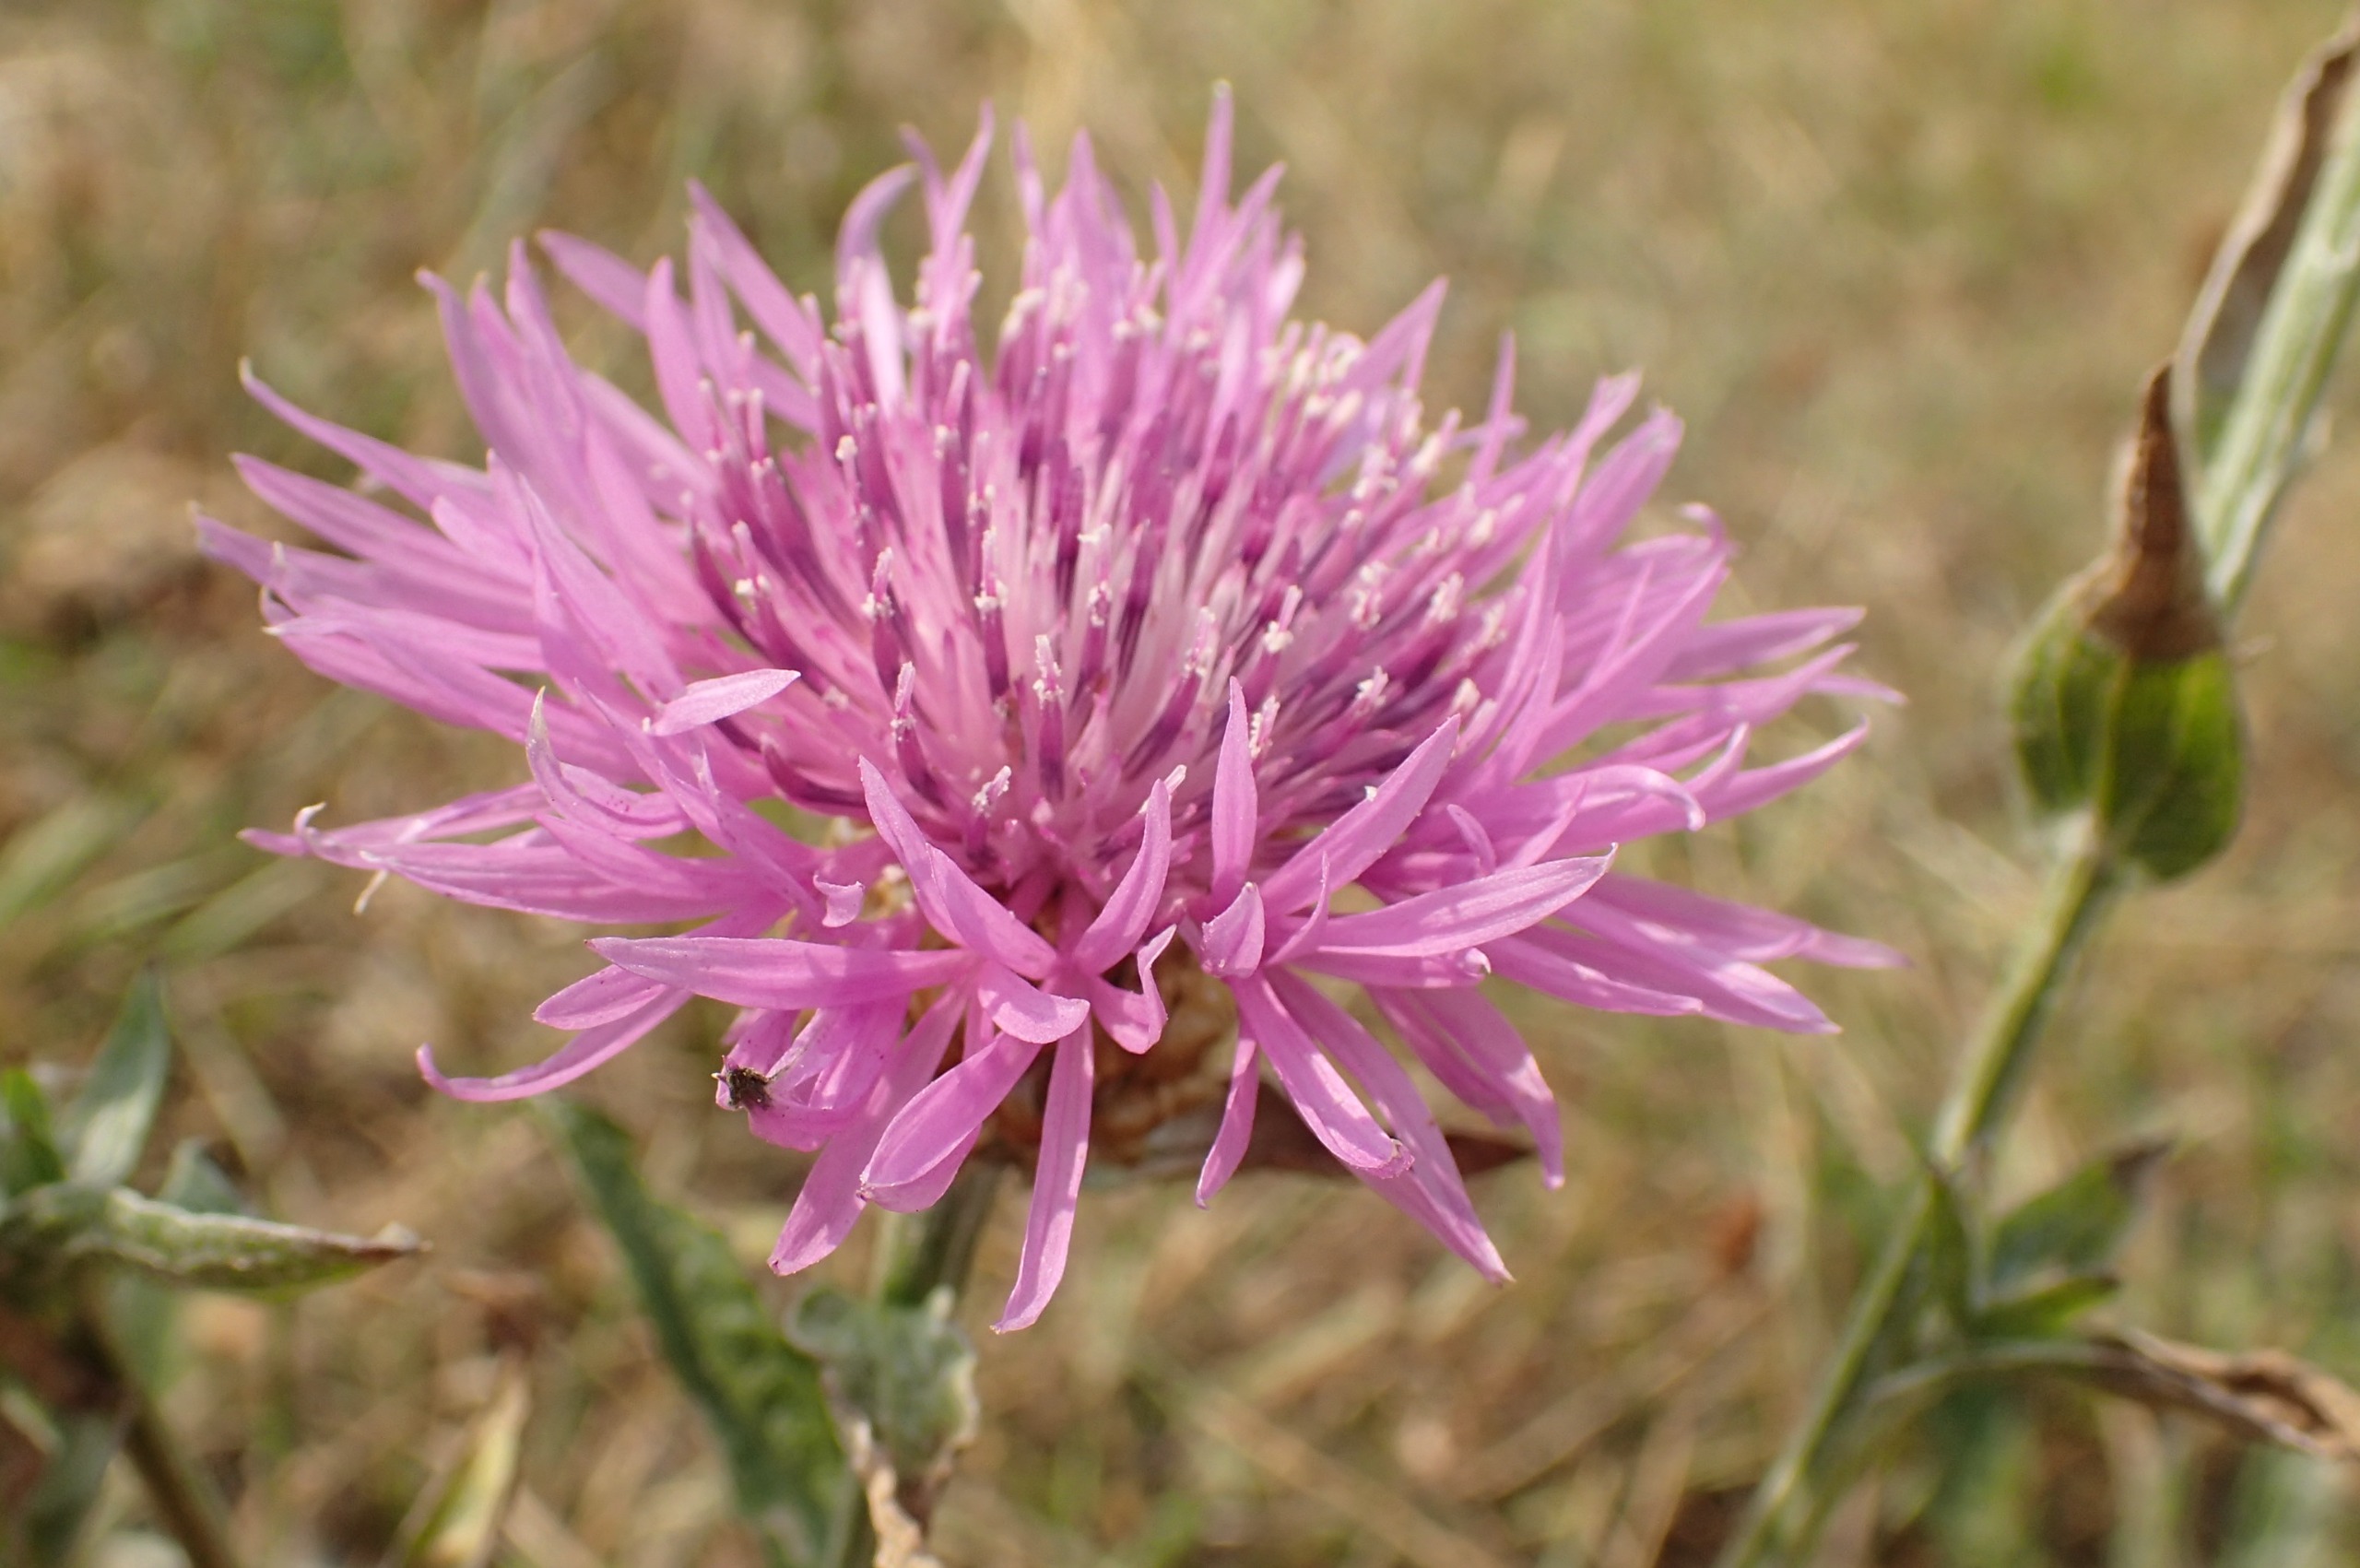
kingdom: Plantae
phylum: Tracheophyta
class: Magnoliopsida
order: Asterales
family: Asteraceae
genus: Centaurea
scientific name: Centaurea jacea
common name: Almindelig knopurt
